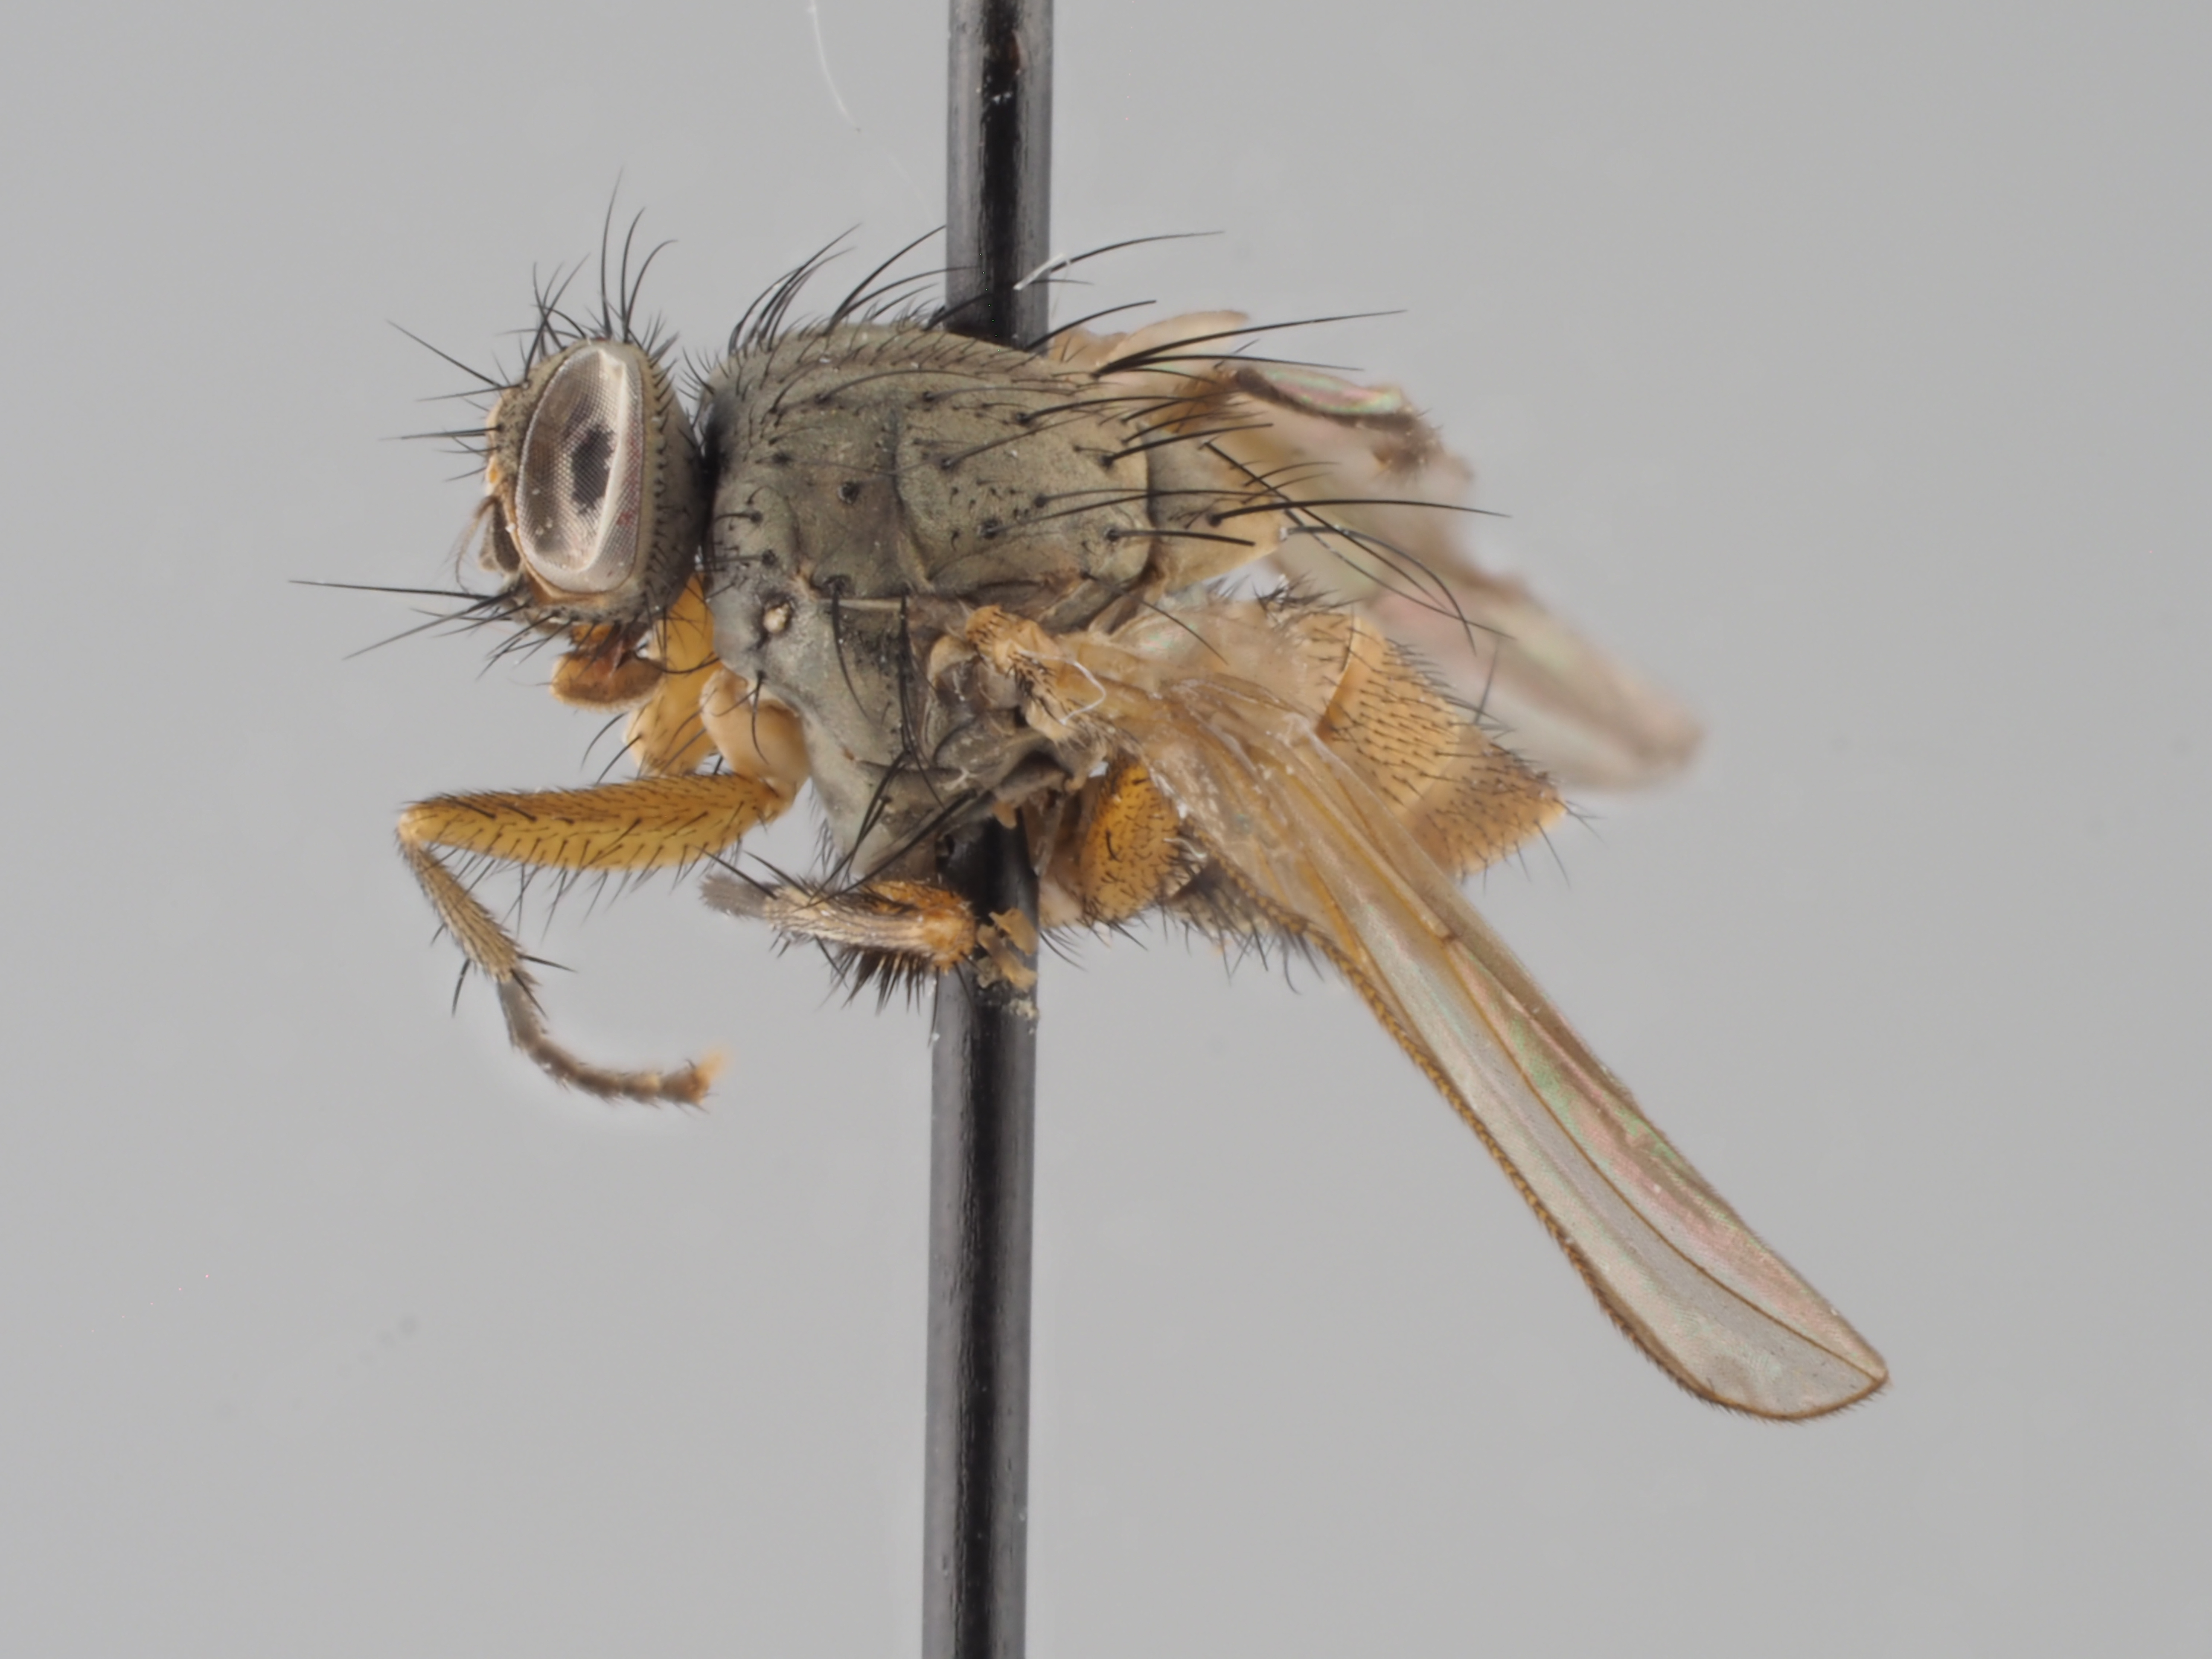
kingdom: Animalia
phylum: Arthropoda
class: Insecta
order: Diptera
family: Fanniidae
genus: Piezura
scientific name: Piezura graminicola
